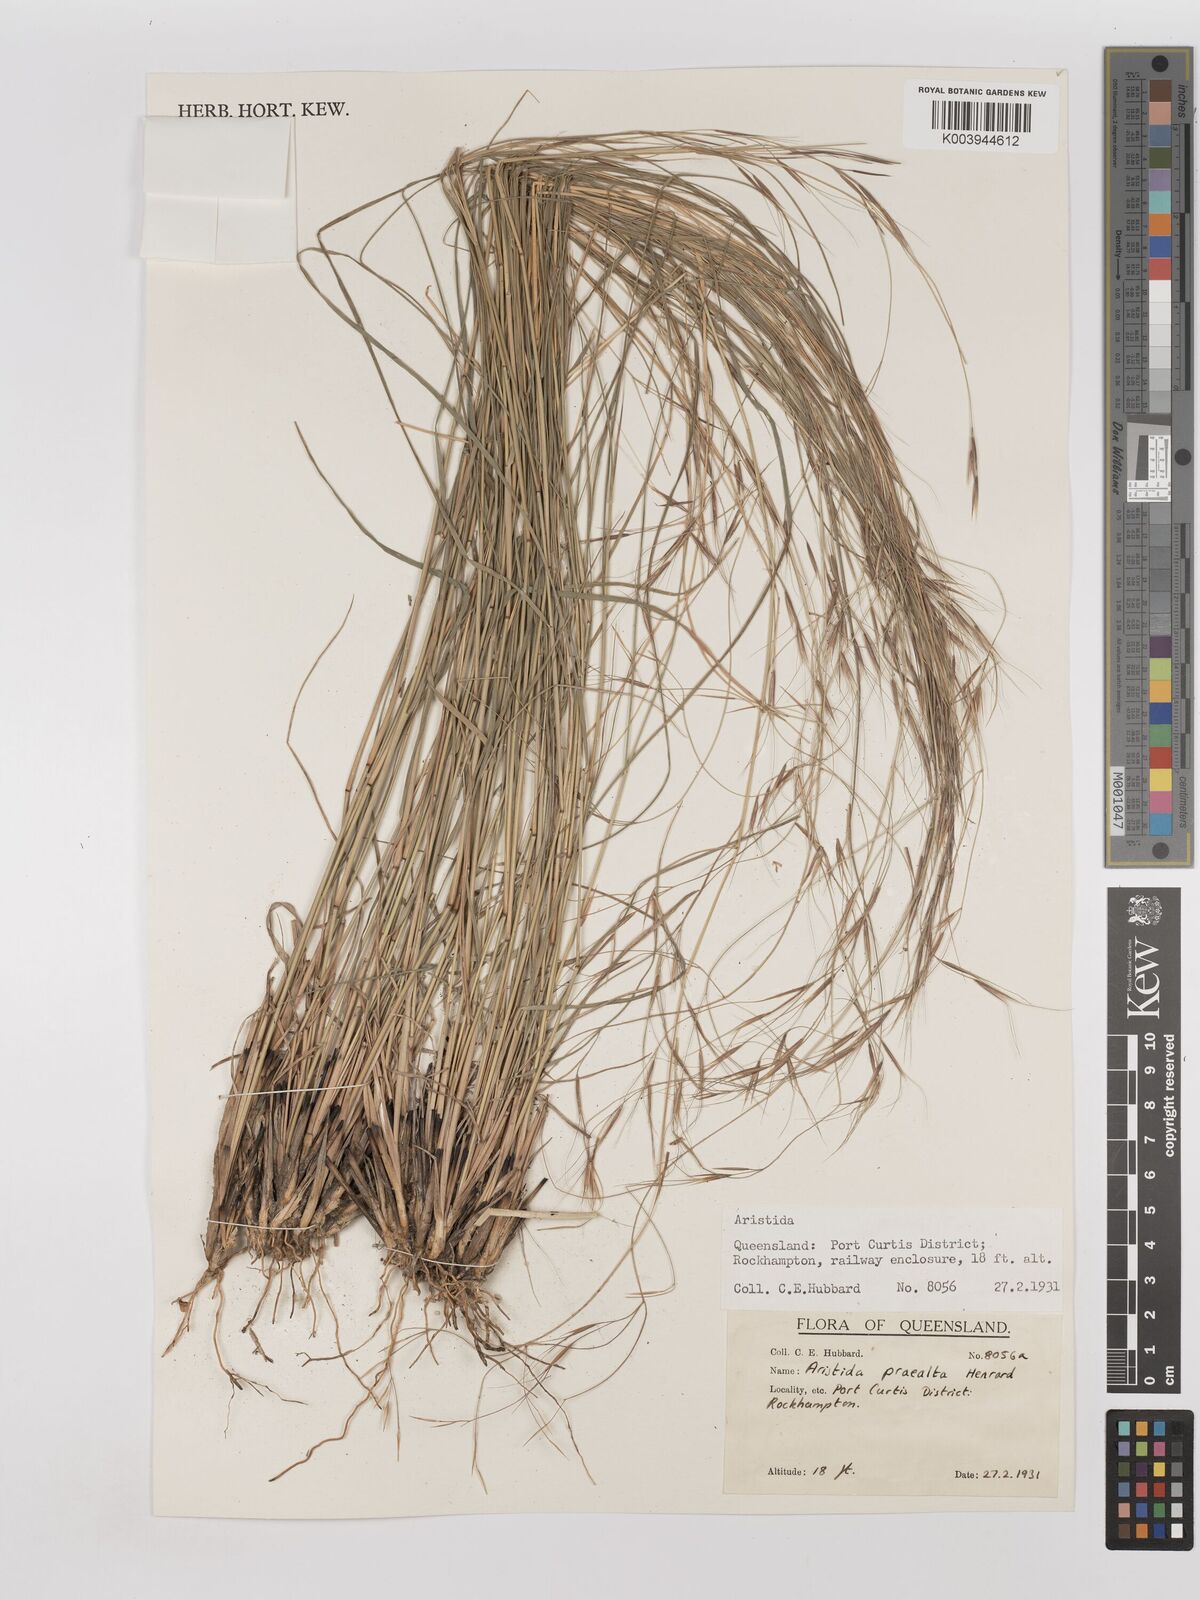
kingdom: Plantae
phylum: Tracheophyta
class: Liliopsida
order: Poales
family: Poaceae
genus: Aristida
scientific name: Aristida calycina
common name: Dark wire grass
